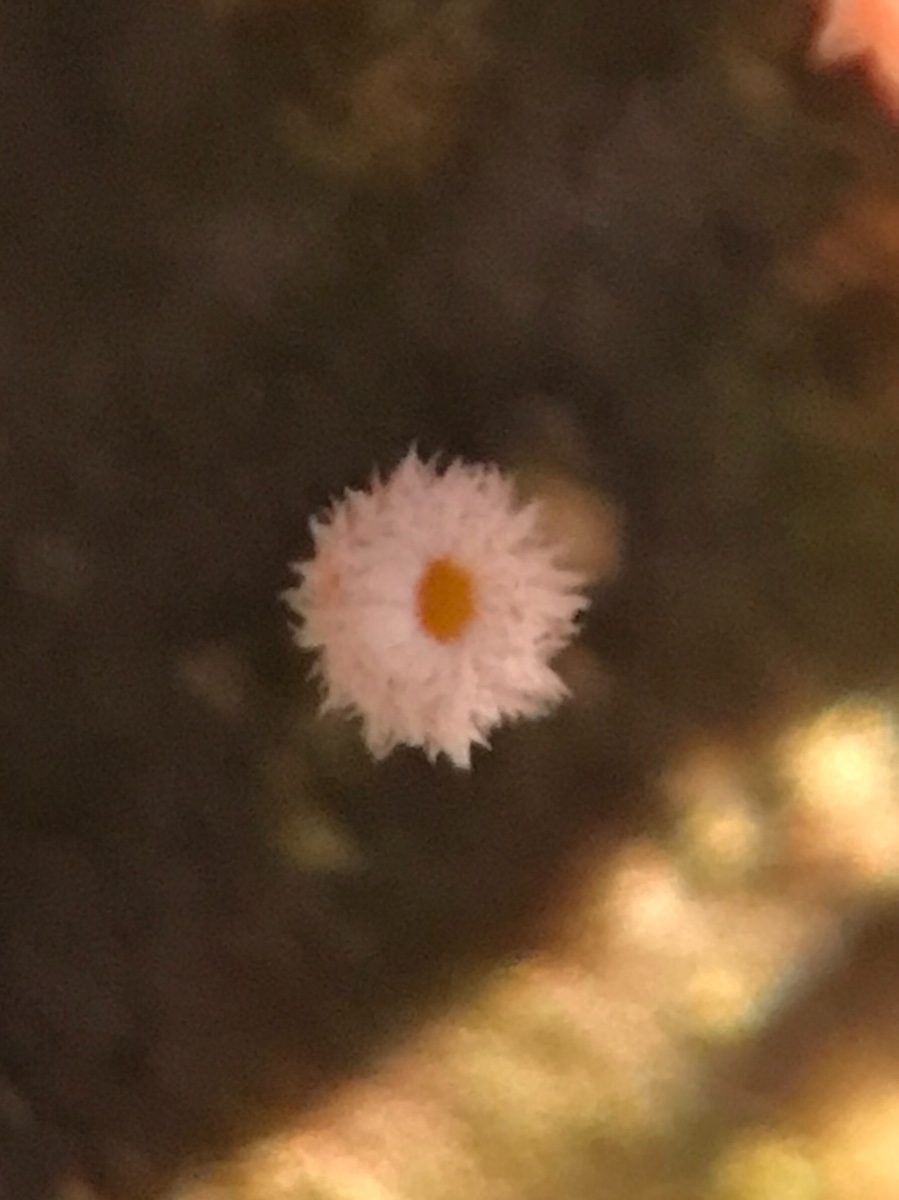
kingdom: Fungi
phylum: Ascomycota
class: Leotiomycetes
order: Helotiales
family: Lachnaceae
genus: Capitotricha
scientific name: Capitotricha bicolor
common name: prægtig frynseskive
